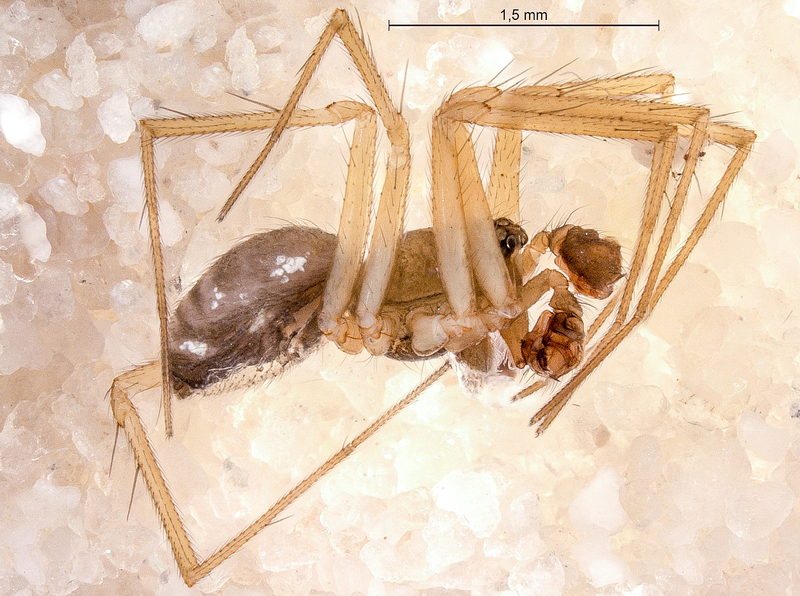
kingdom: Animalia
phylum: Arthropoda
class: Arachnida
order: Araneae
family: Linyphiidae
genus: Tenuiphantes
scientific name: Tenuiphantes tenebricola
